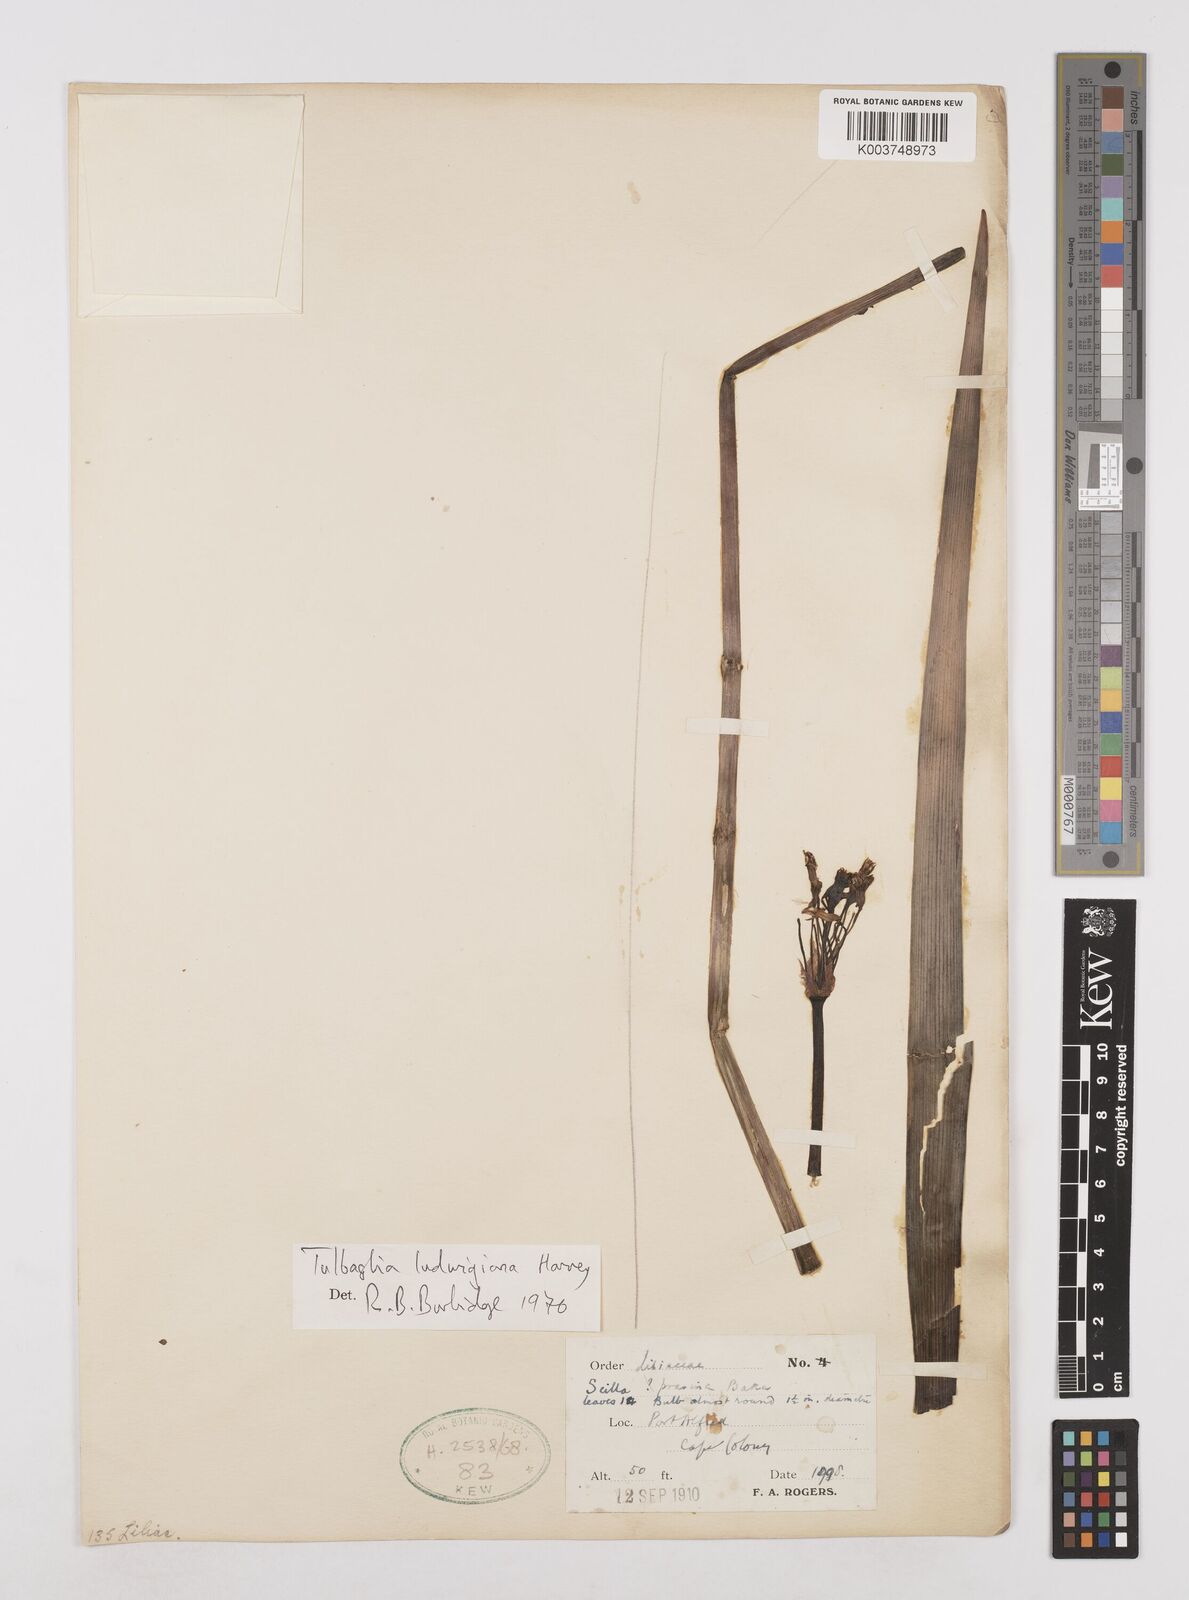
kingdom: Plantae
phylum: Tracheophyta
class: Liliopsida
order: Asparagales
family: Amaryllidaceae
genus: Tulbaghia
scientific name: Tulbaghia ludwigiana
